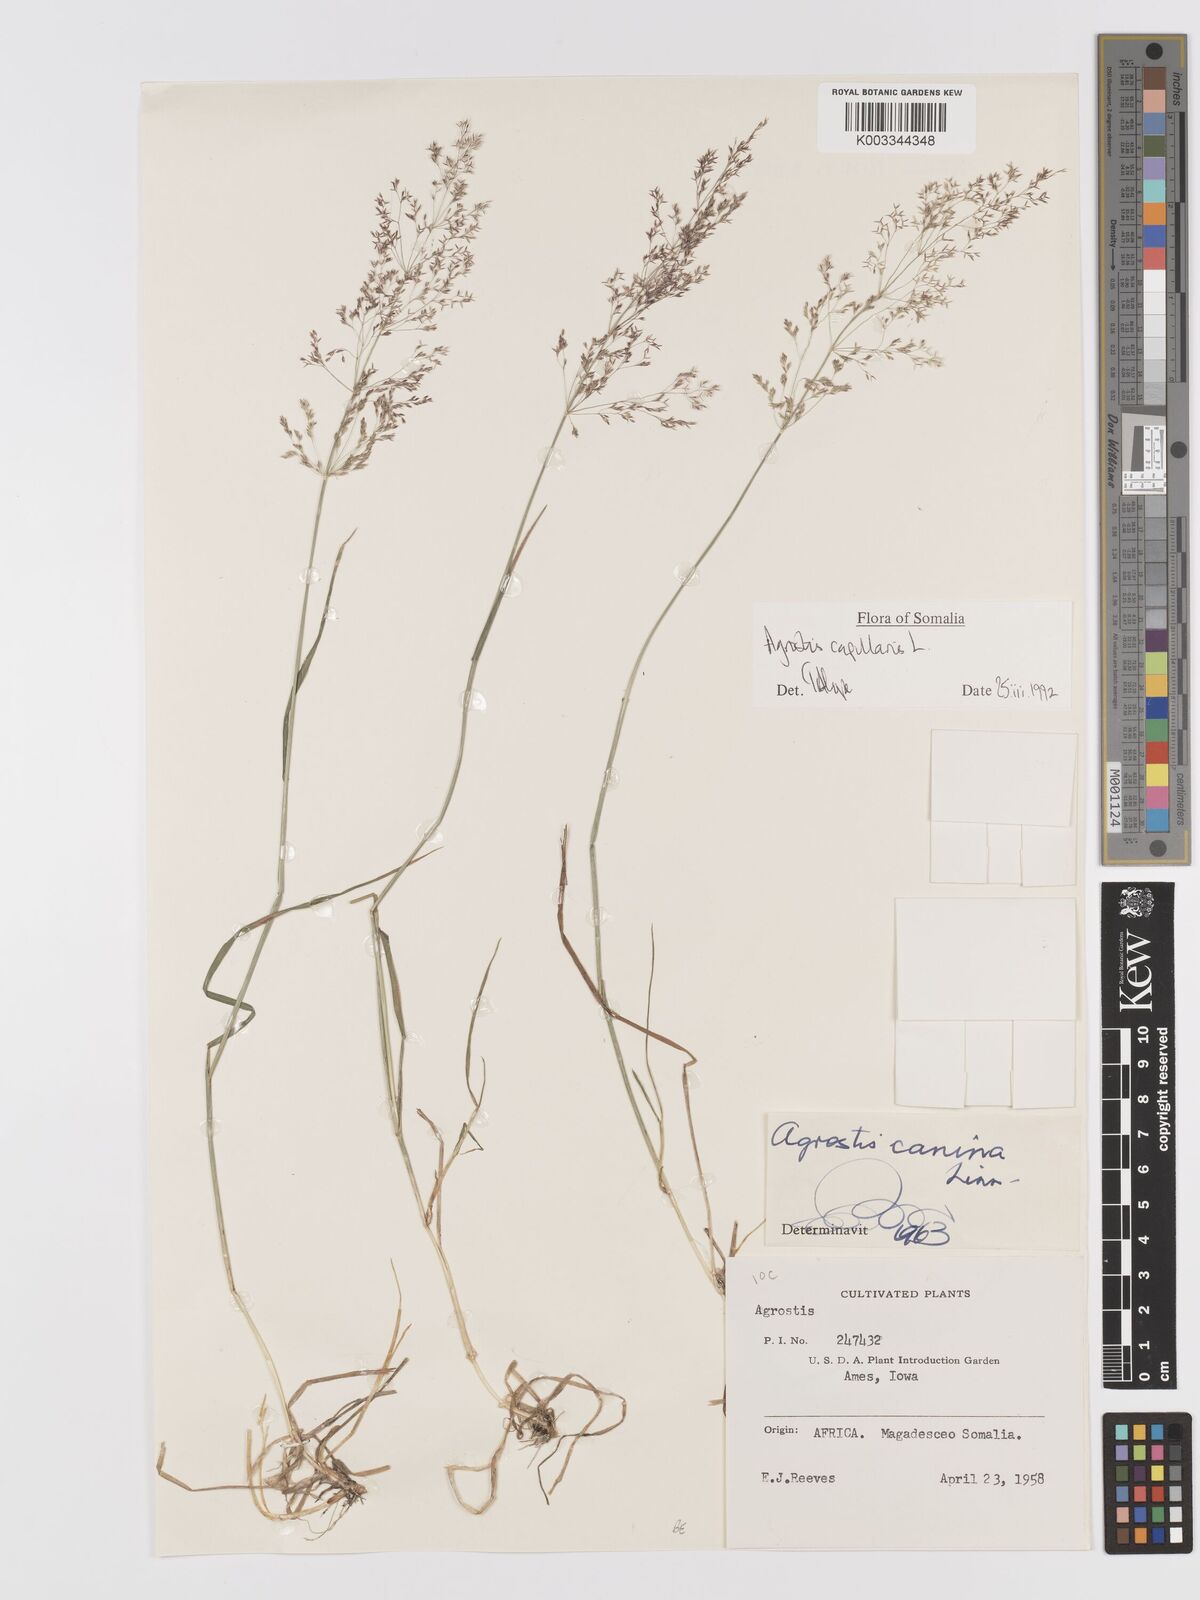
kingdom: Plantae
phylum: Tracheophyta
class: Liliopsida
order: Poales
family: Poaceae
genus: Agrostis
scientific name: Agrostis canina
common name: Velvet bent
